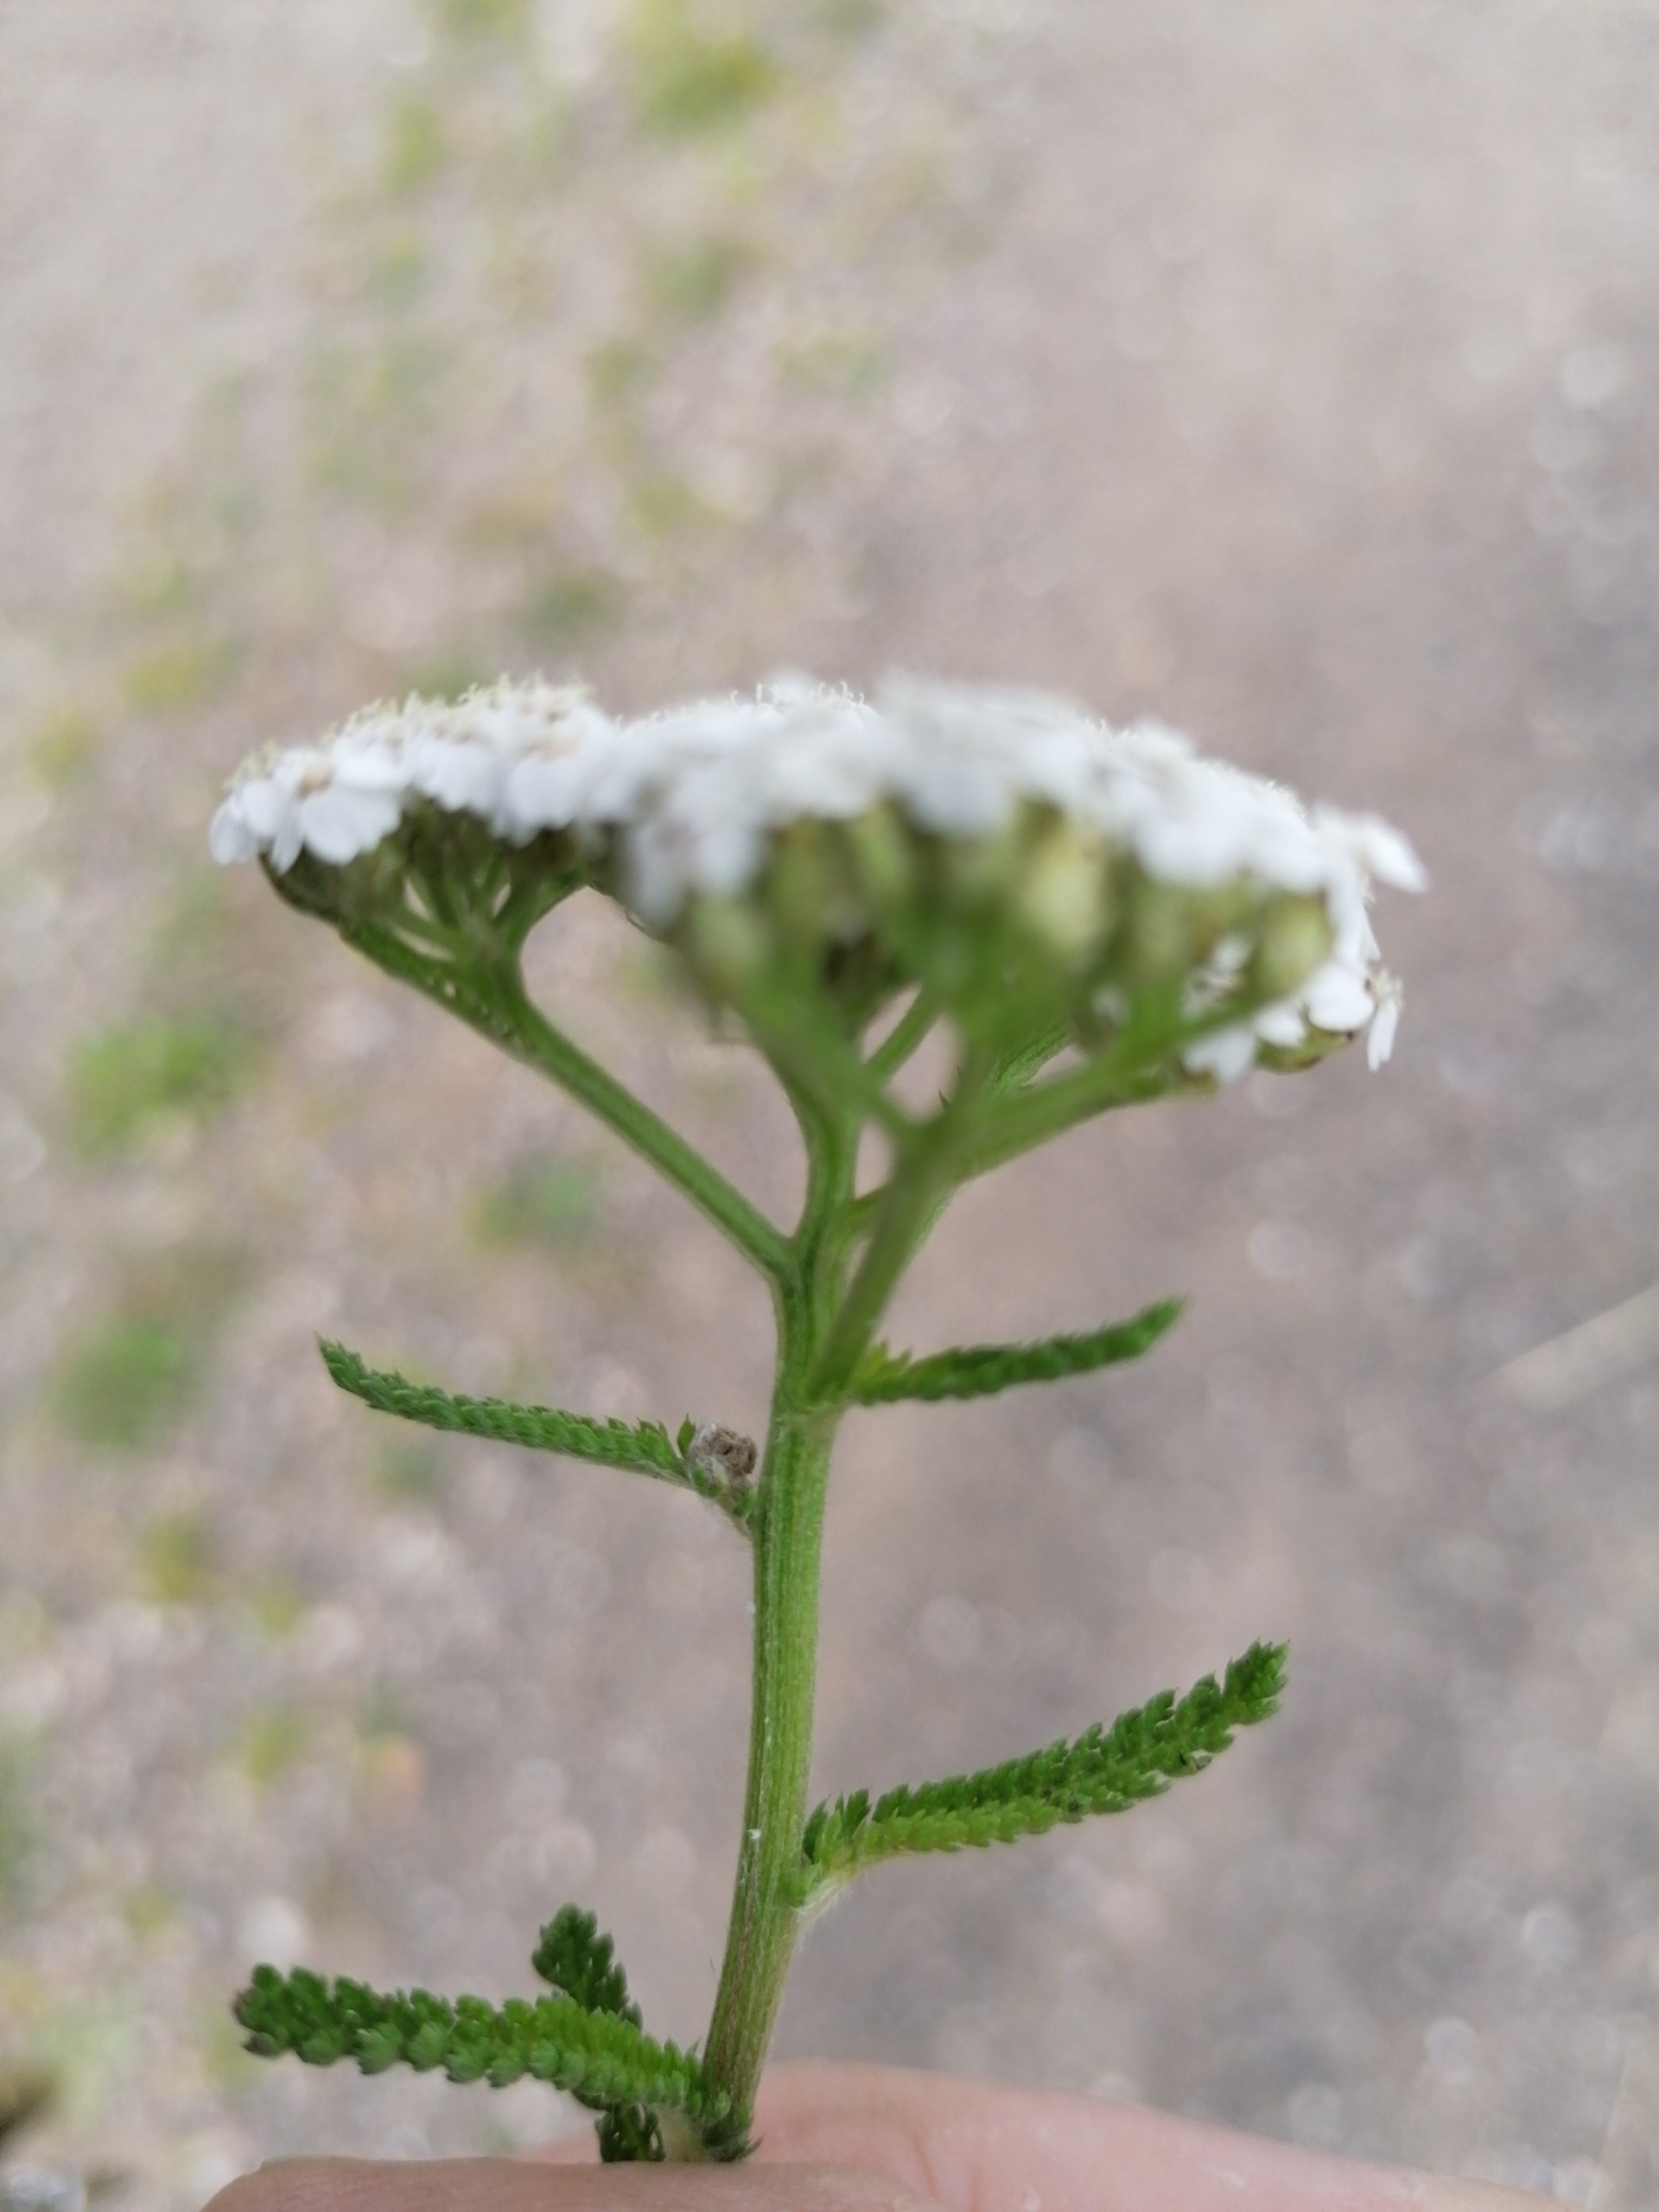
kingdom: Plantae
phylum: Tracheophyta
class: Magnoliopsida
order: Asterales
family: Asteraceae
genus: Achillea
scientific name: Achillea millefolium
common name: Almindelig røllike
